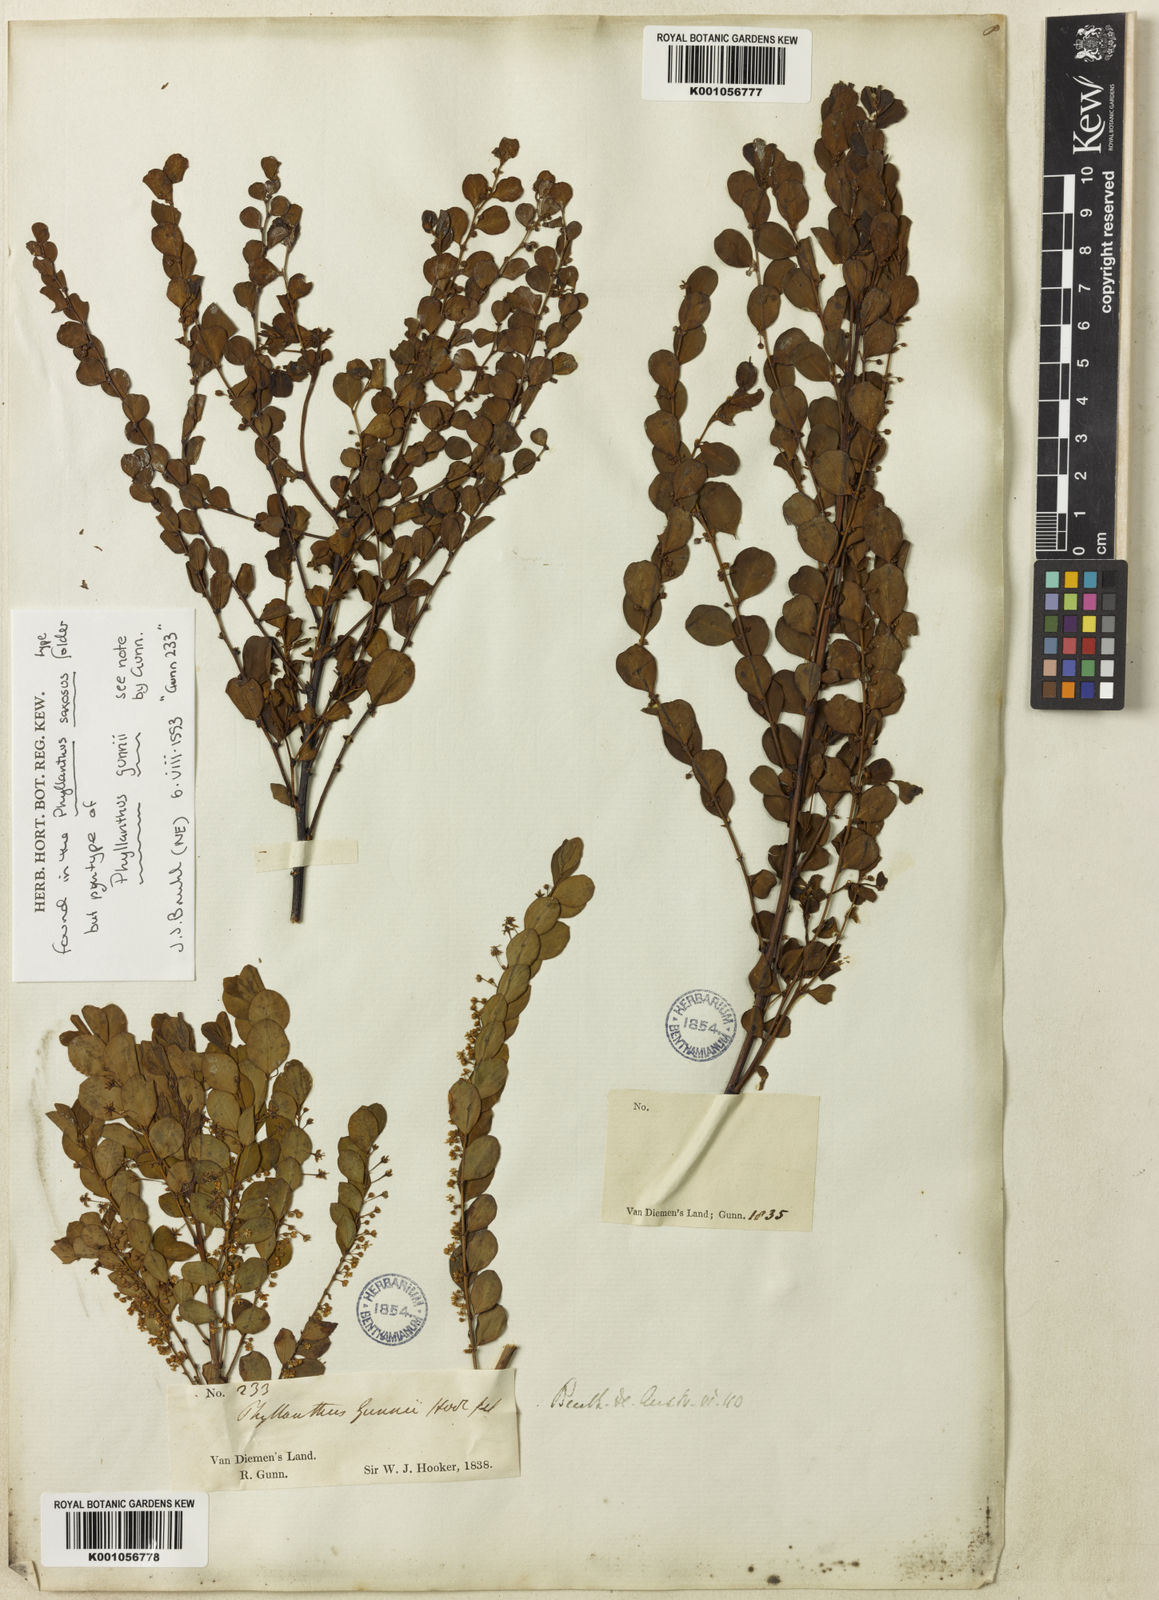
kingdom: Plantae
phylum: Tracheophyta
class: Magnoliopsida
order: Malpighiales
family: Phyllanthaceae
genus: Phyllanthus
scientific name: Phyllanthus gunnii
